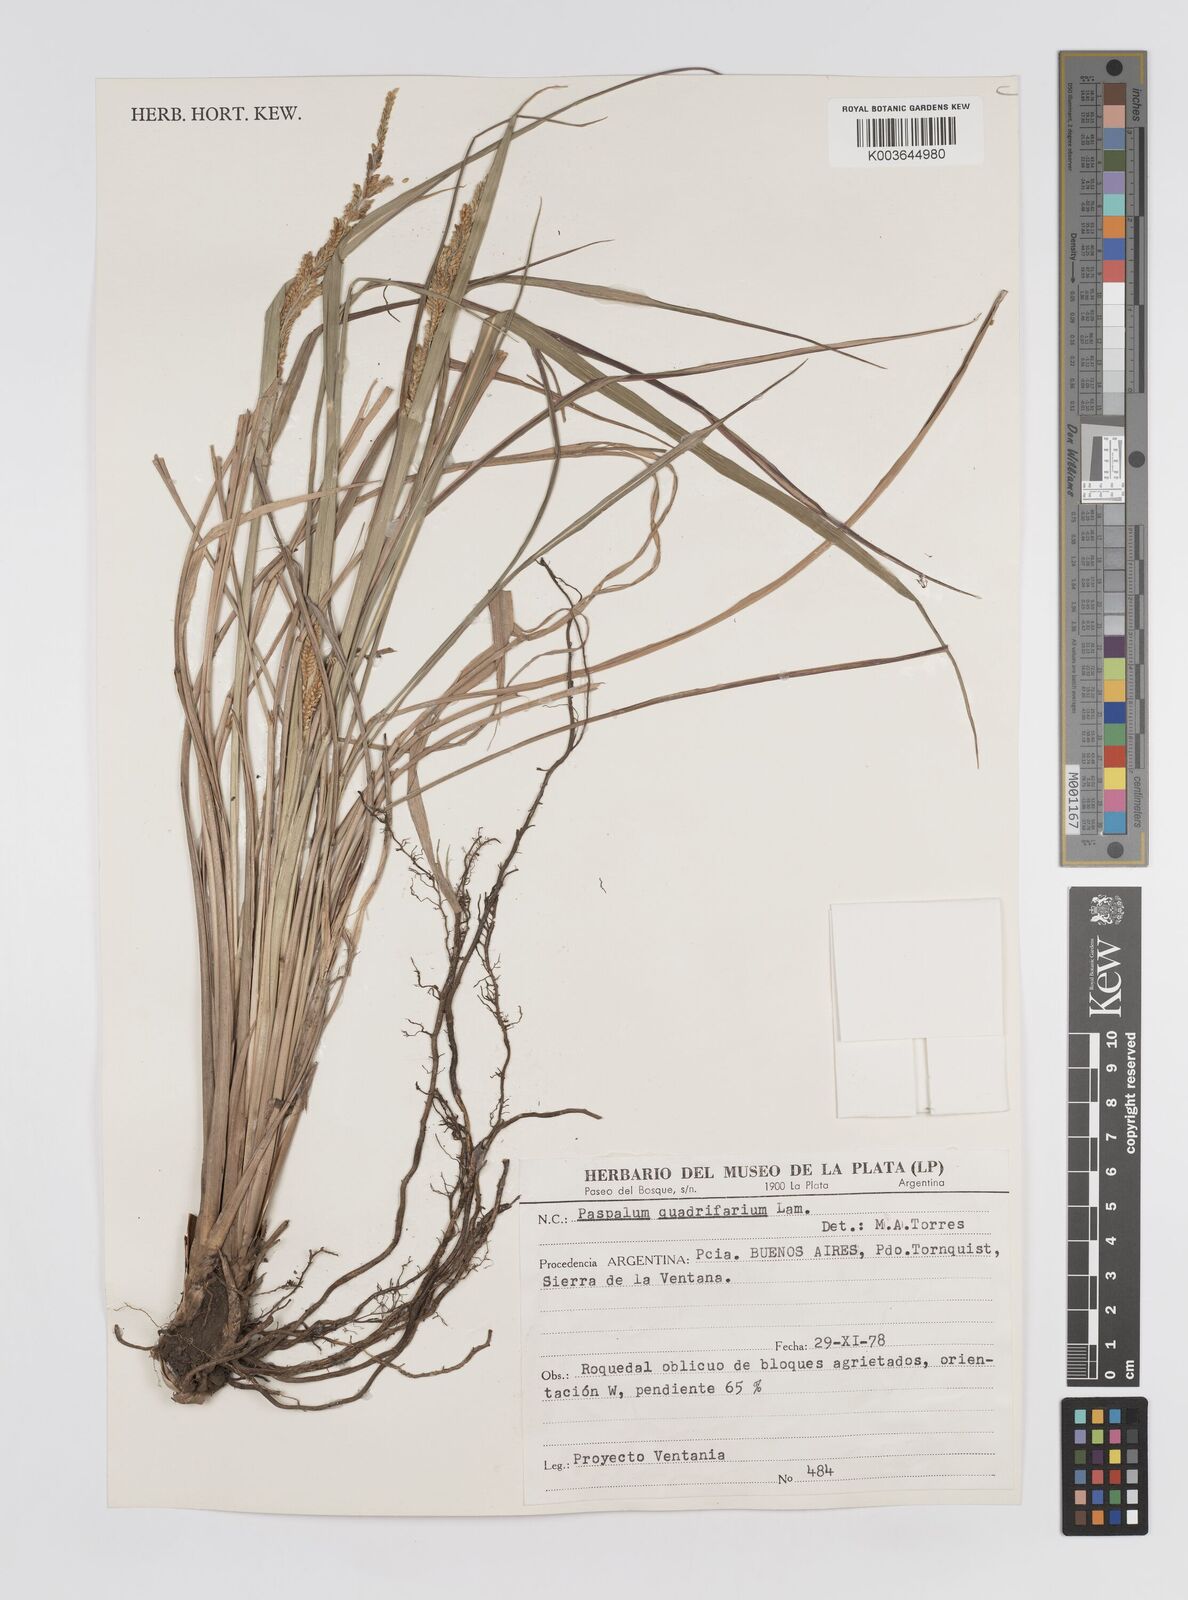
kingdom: Plantae
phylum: Tracheophyta
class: Liliopsida
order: Poales
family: Poaceae
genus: Paspalum
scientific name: Paspalum quadrifarium
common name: Tussock paspalum
